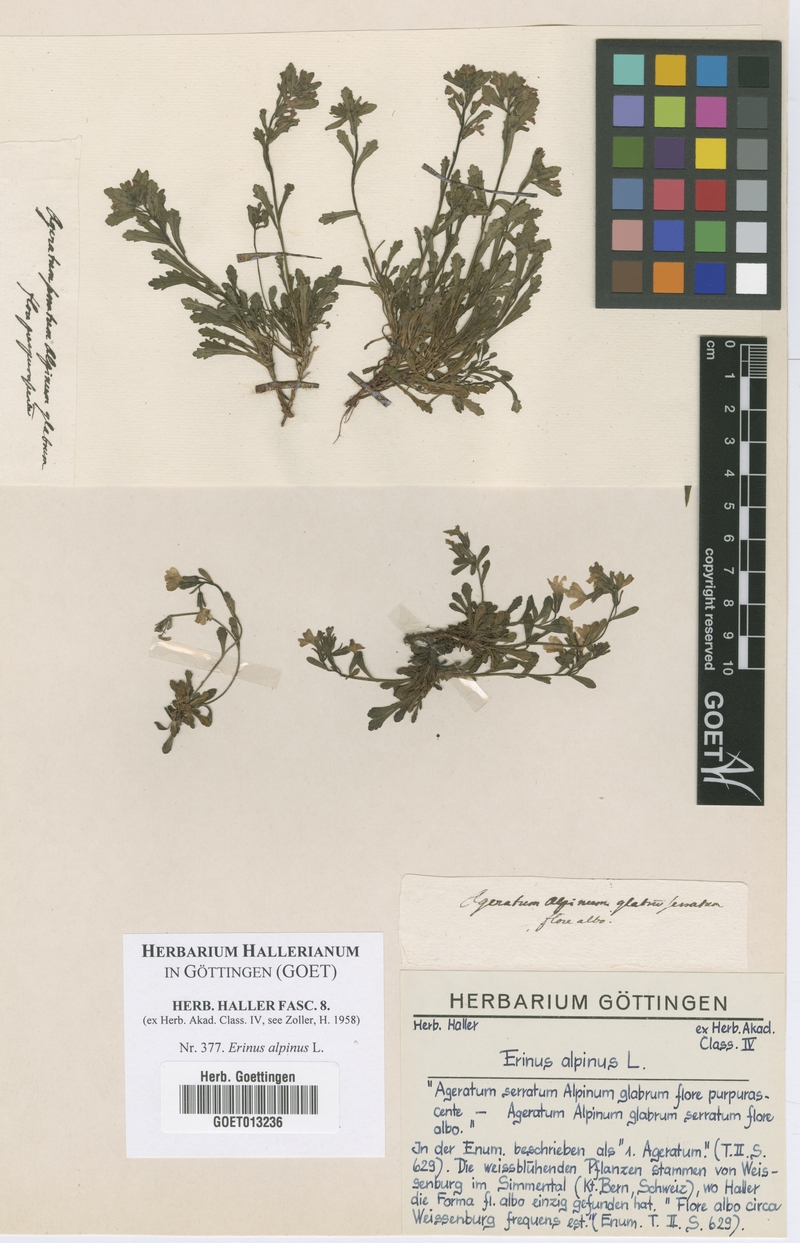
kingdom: Plantae
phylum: Tracheophyta
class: Magnoliopsida
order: Lamiales
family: Plantaginaceae
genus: Erinus
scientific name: Erinus alpinus
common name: Fairy foxglove
